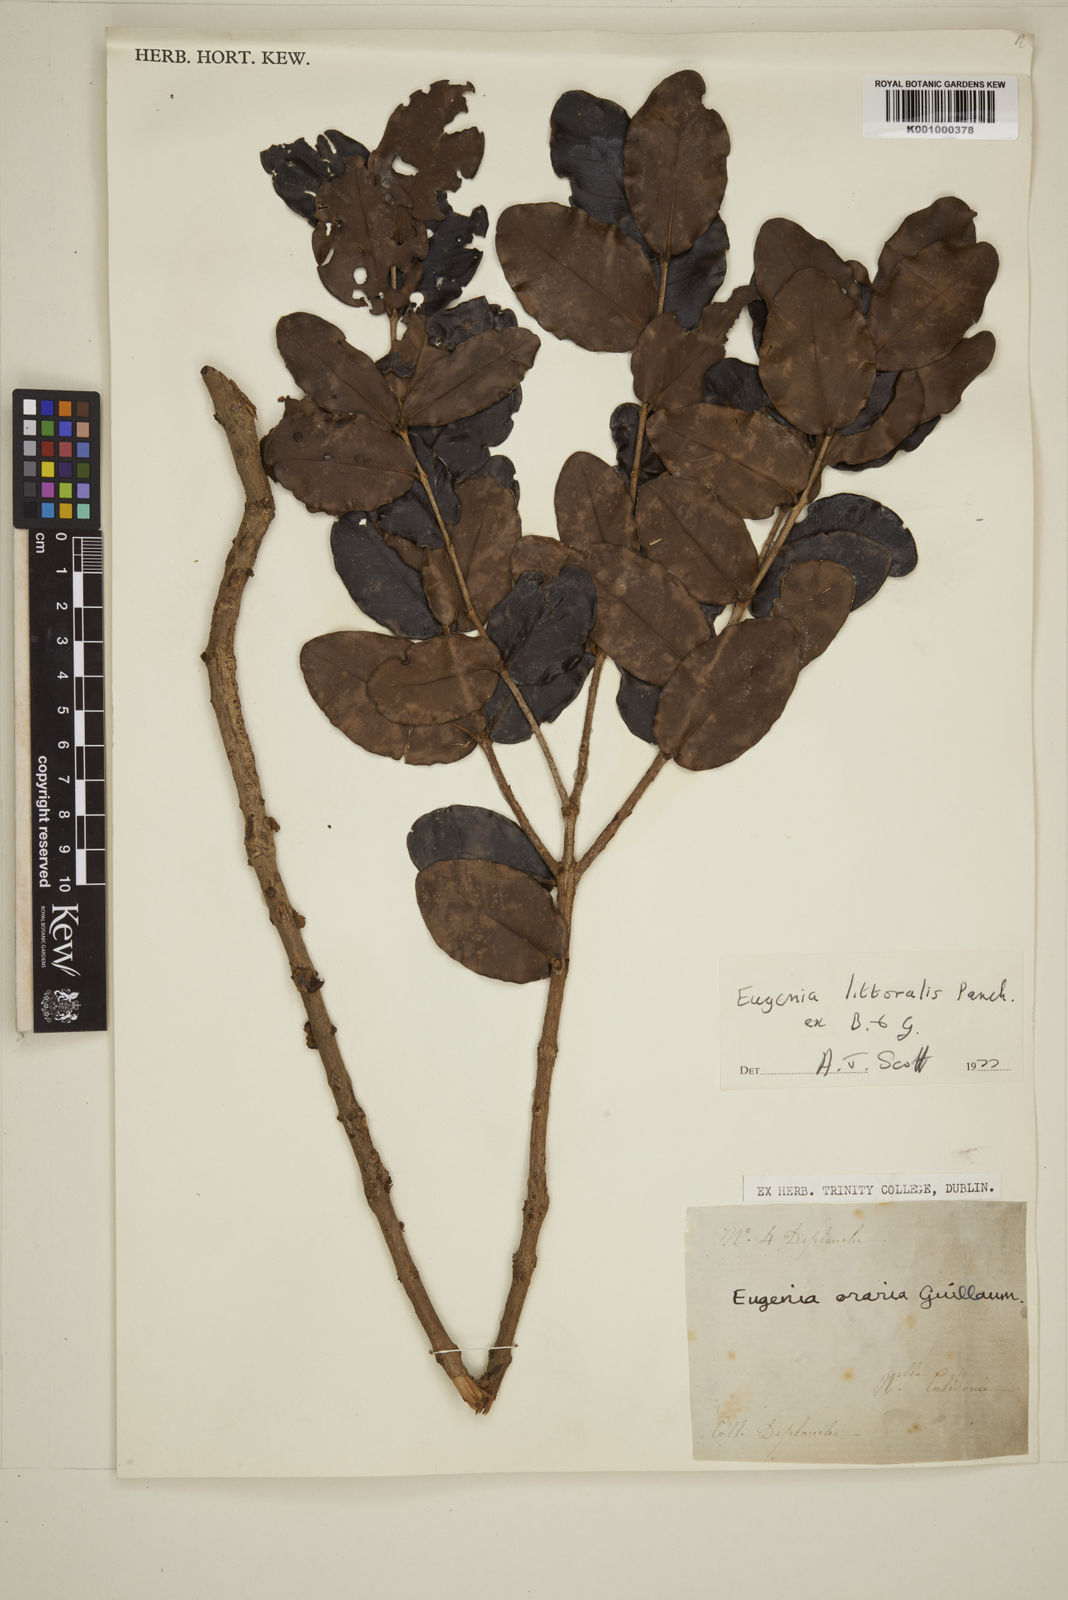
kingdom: Plantae
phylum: Tracheophyta
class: Magnoliopsida
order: Myrtales
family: Myrtaceae
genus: Eugenia
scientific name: Eugenia littoralis
